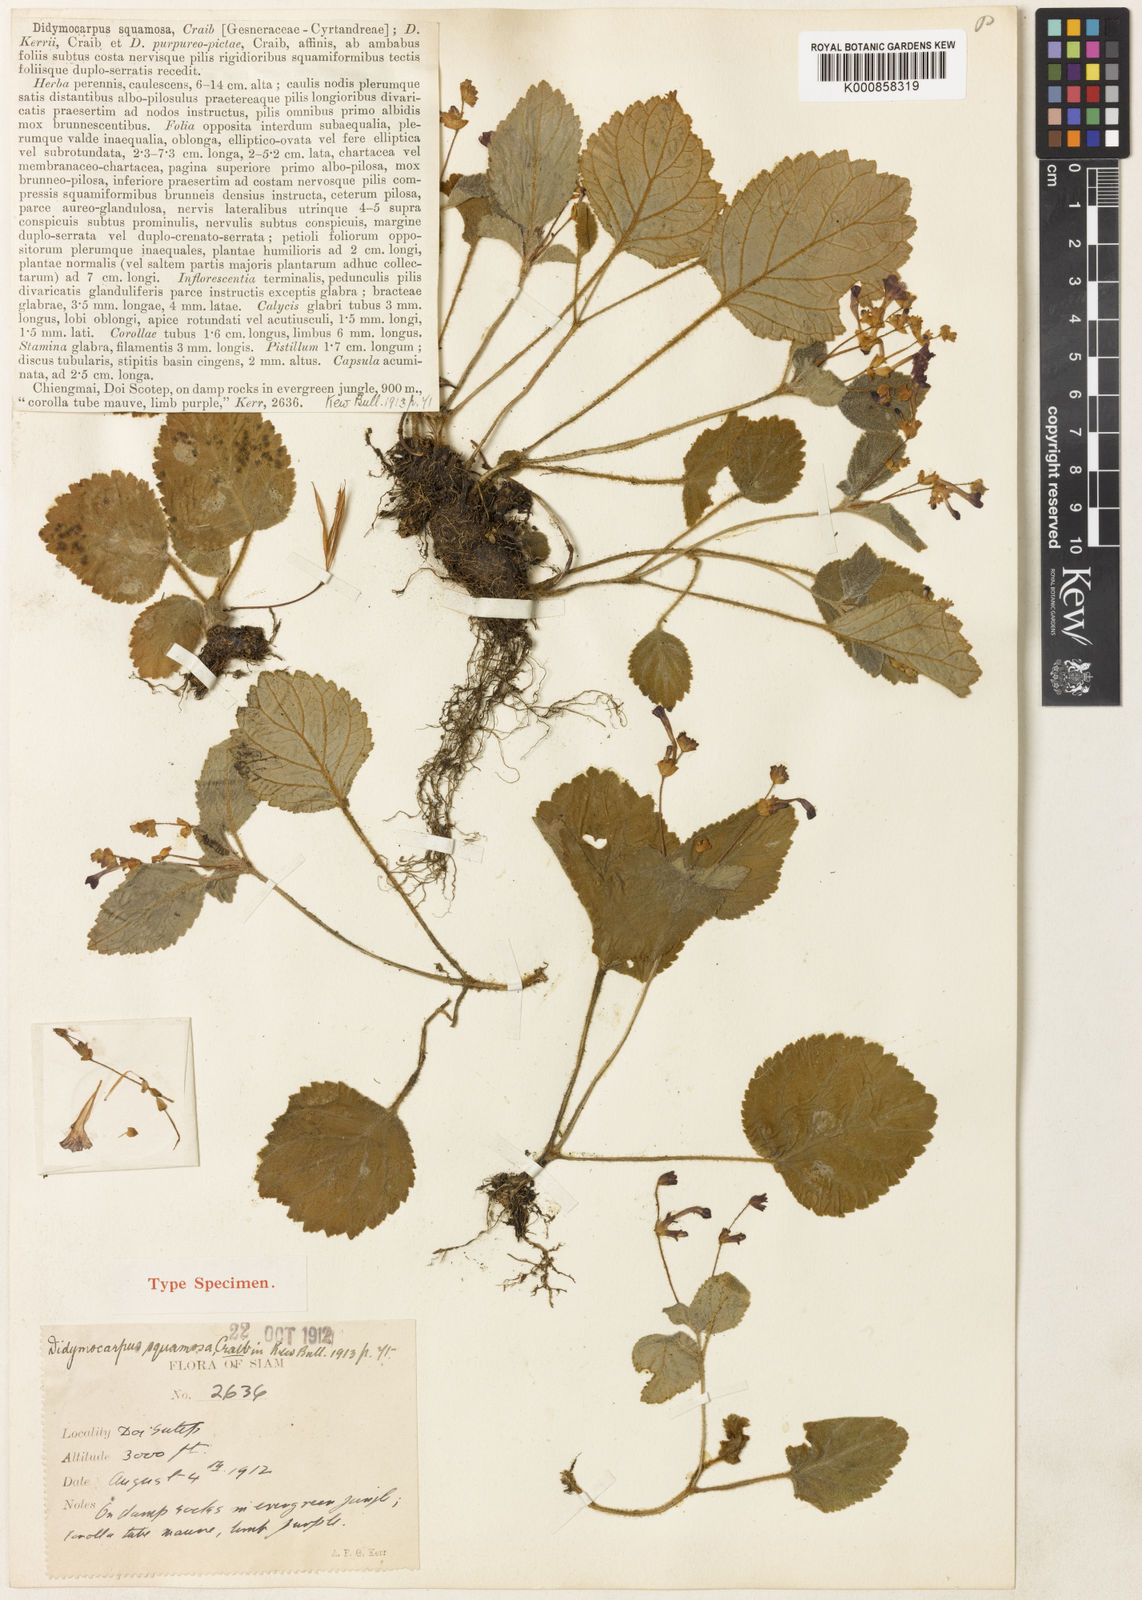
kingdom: Plantae
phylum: Tracheophyta
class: Magnoliopsida
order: Lamiales
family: Gesneriaceae
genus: Didymocarpus
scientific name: Didymocarpus kerrii
